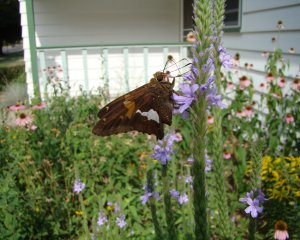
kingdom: Animalia
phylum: Arthropoda
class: Insecta
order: Lepidoptera
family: Hesperiidae
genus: Epargyreus
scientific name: Epargyreus clarus
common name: Silver-spotted Skipper
